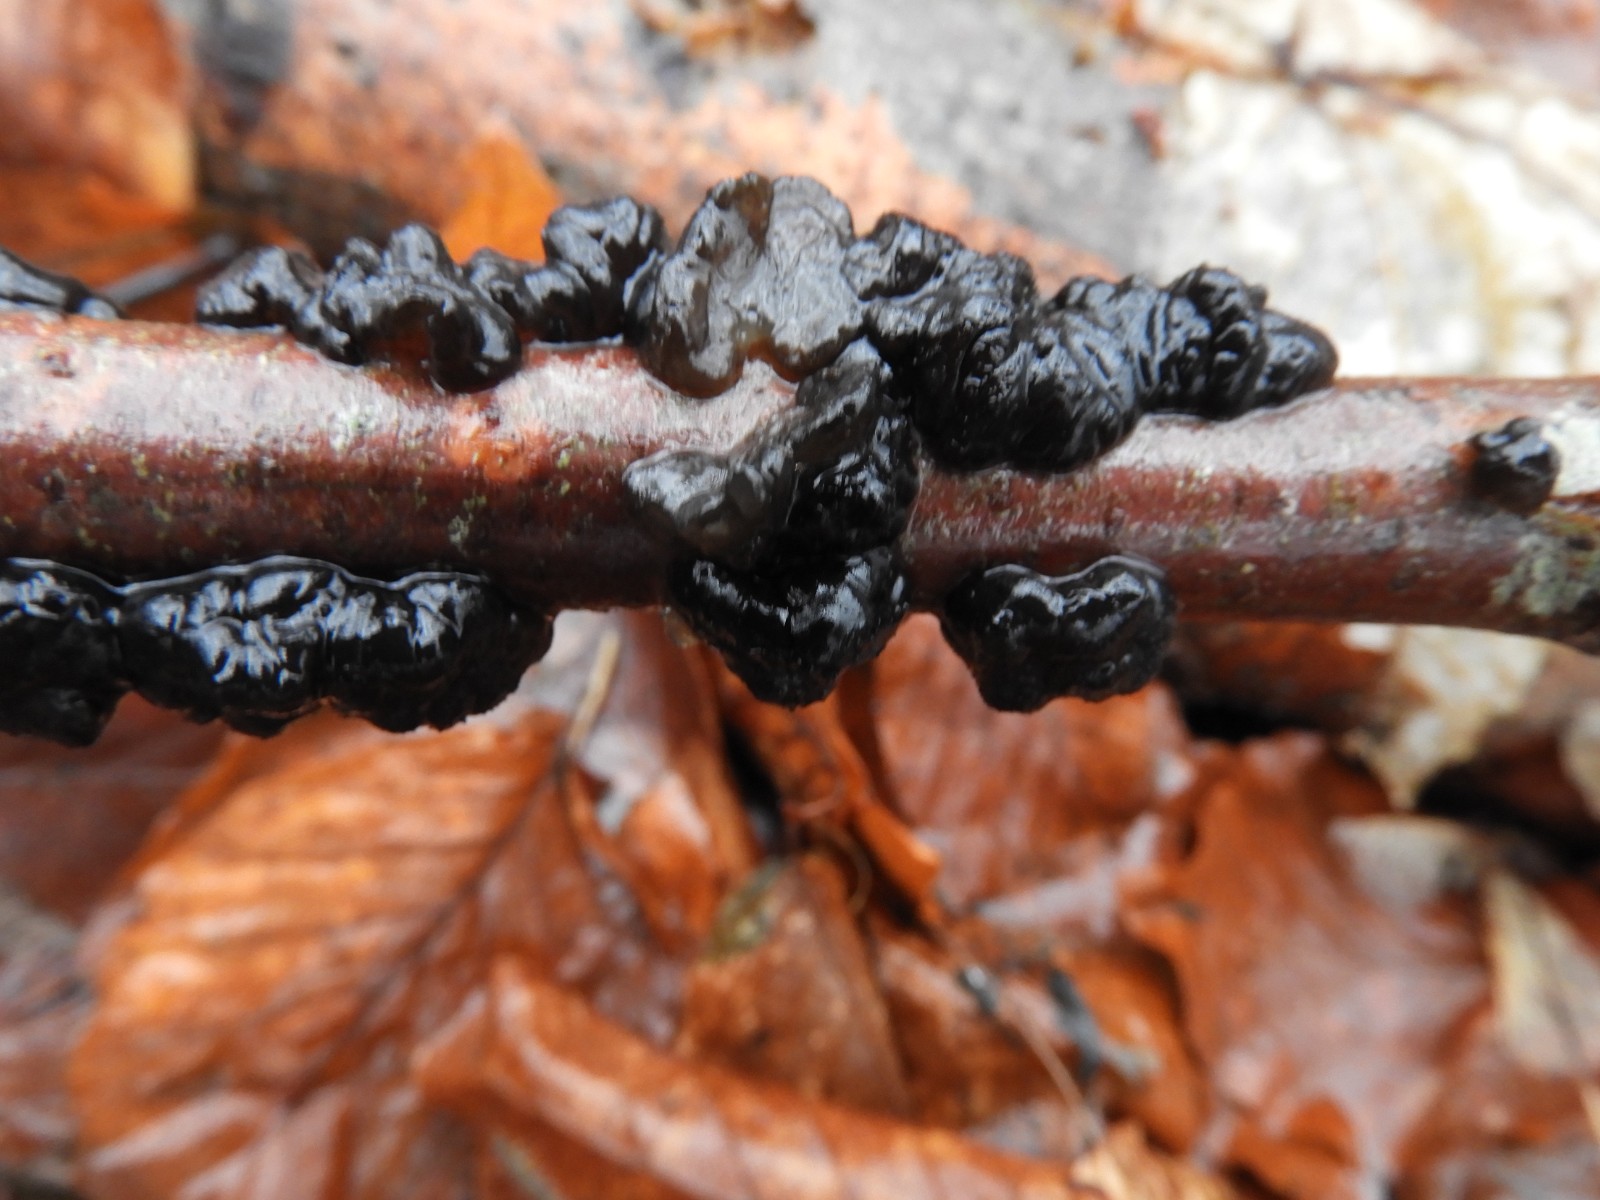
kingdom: Fungi
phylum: Basidiomycota
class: Agaricomycetes
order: Auriculariales
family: Auriculariaceae
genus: Exidia
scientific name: Exidia nigricans
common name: almindelig bævretop
